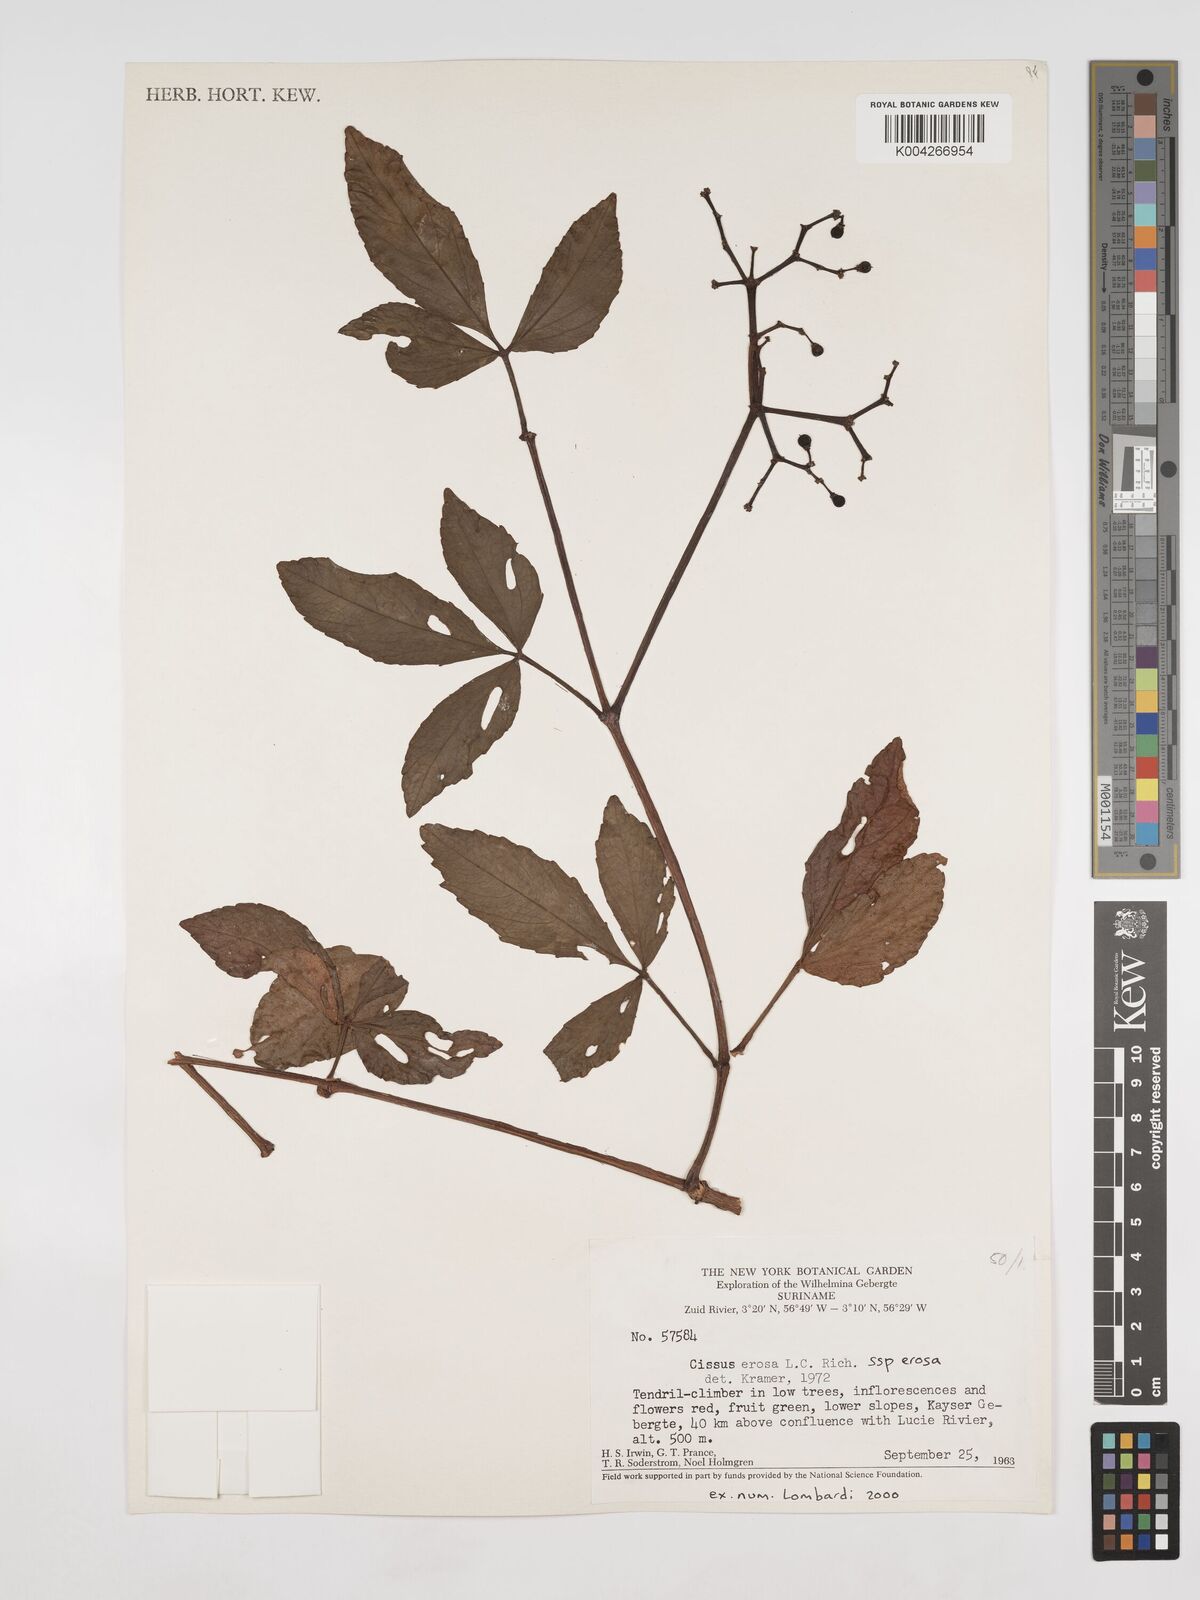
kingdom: Plantae
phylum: Tracheophyta
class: Magnoliopsida
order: Vitales
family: Vitaceae
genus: Cissus
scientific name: Cissus erosa
